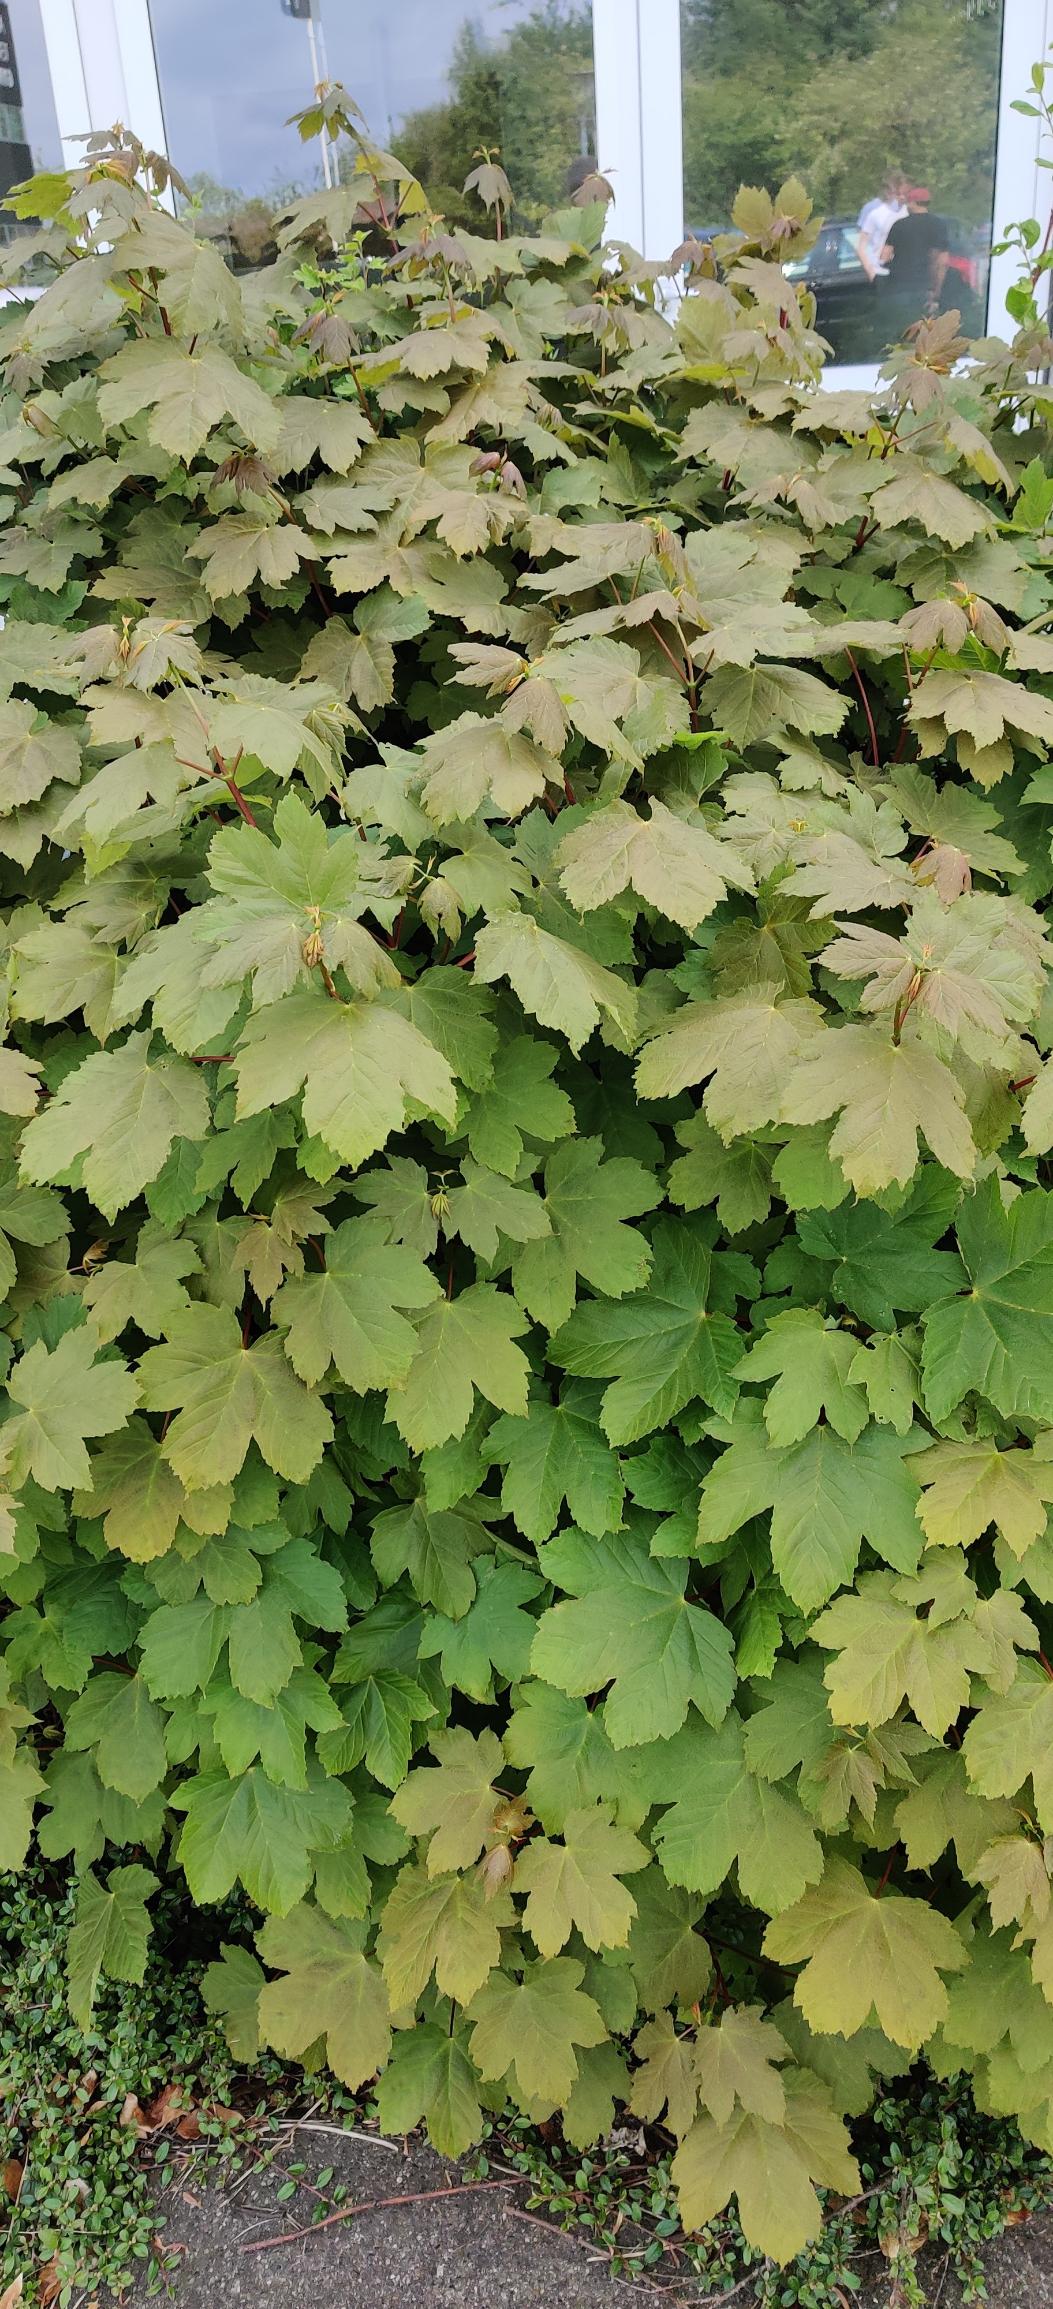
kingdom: Plantae
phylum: Tracheophyta
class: Magnoliopsida
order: Sapindales
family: Sapindaceae
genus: Acer
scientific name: Acer pseudoplatanus
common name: Ahorn
